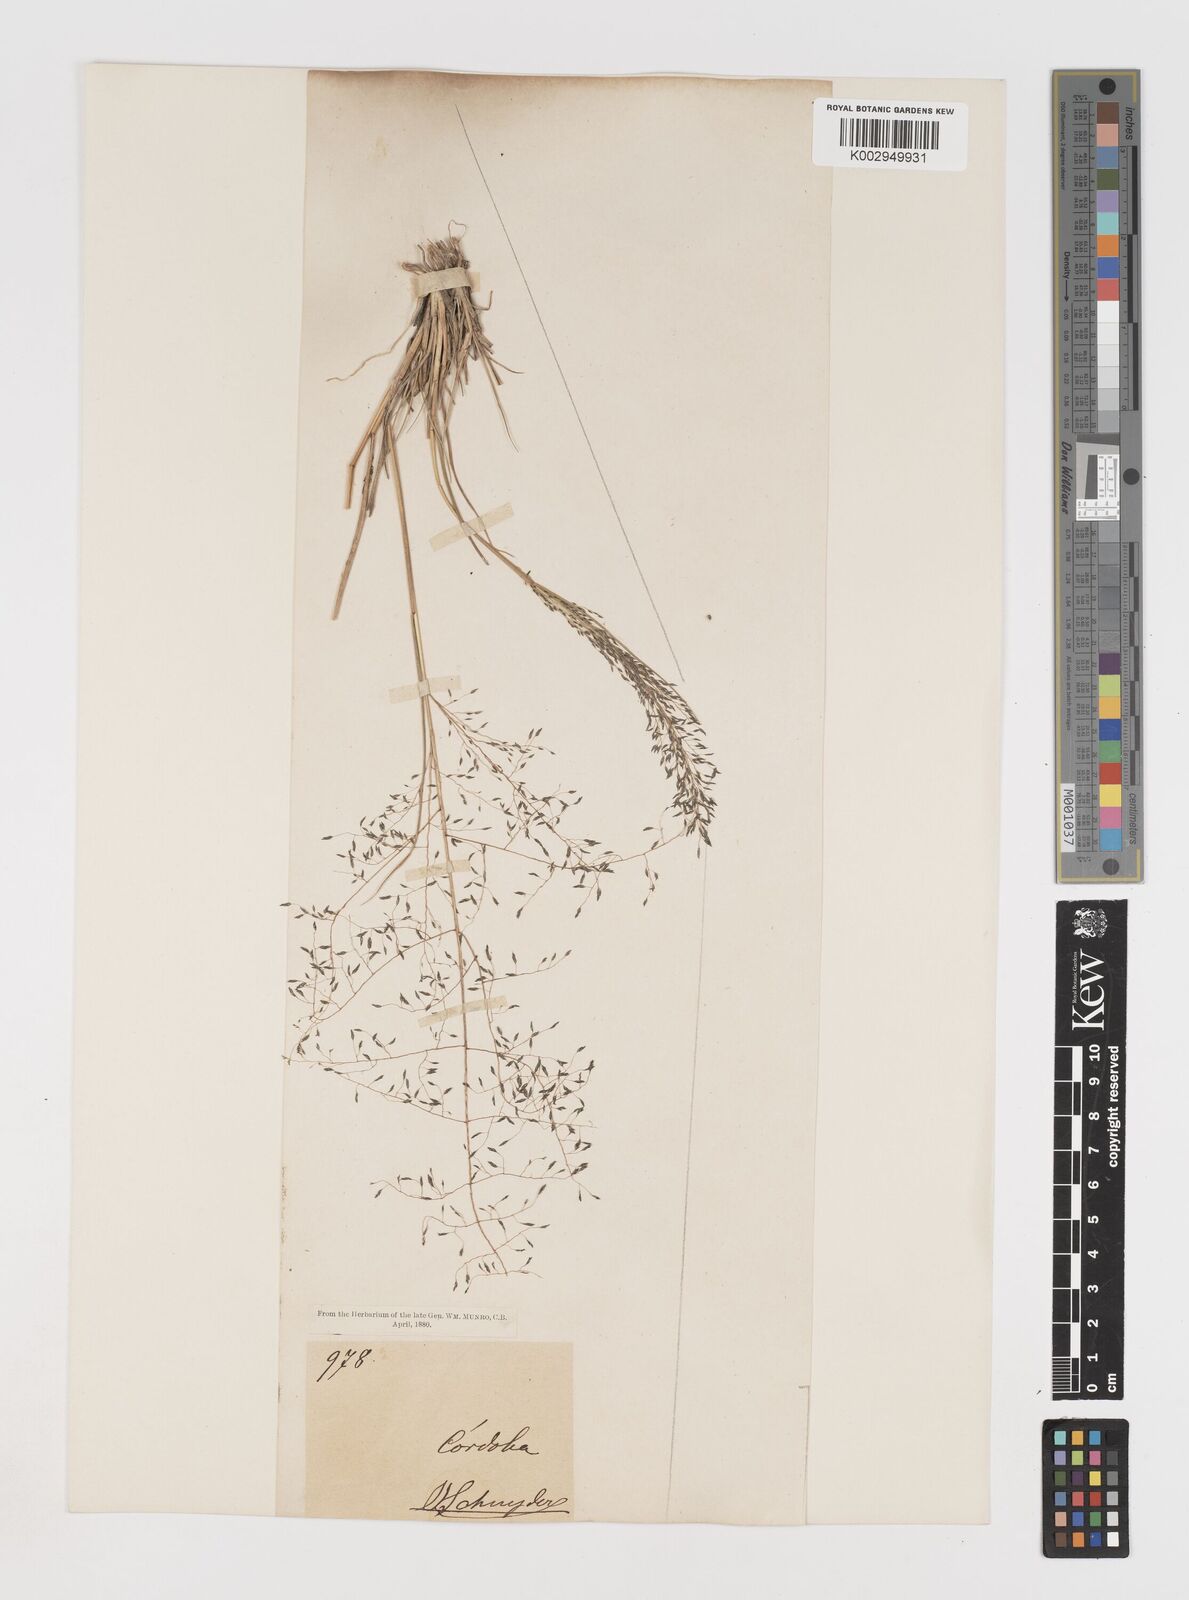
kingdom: Plantae
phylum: Tracheophyta
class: Liliopsida
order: Poales
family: Poaceae
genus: Eragrostis
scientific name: Eragrostis lugens
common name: Mourning love grass
